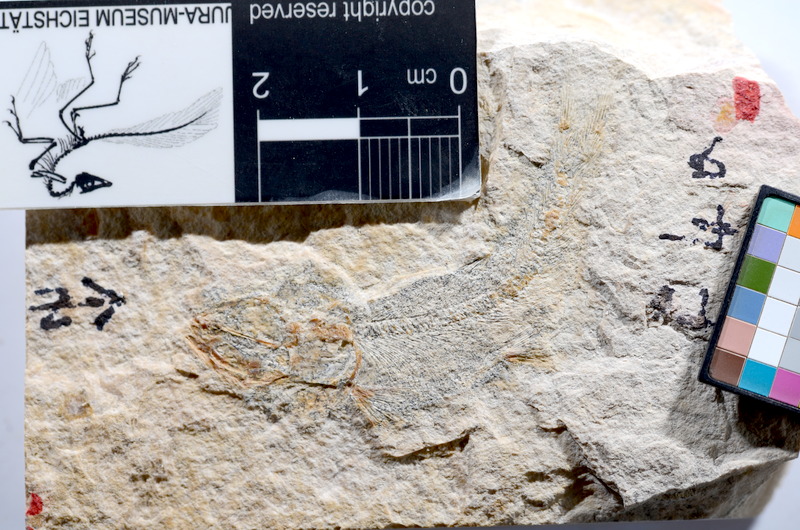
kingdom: Animalia
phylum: Chordata
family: Ascalaboidae
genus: Tharsis
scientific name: Tharsis dubius
